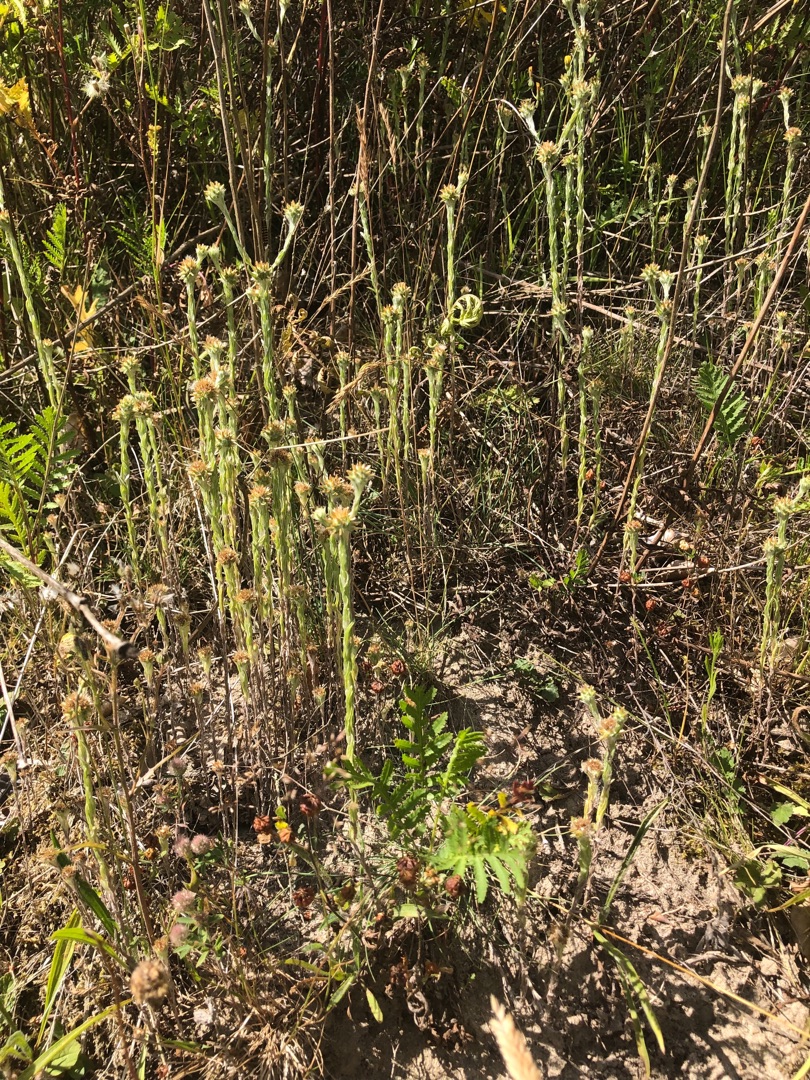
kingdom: Plantae
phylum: Tracheophyta
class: Magnoliopsida
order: Asterales
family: Asteraceae
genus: Filago
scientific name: Filago germanica
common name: Kugle-museurt
